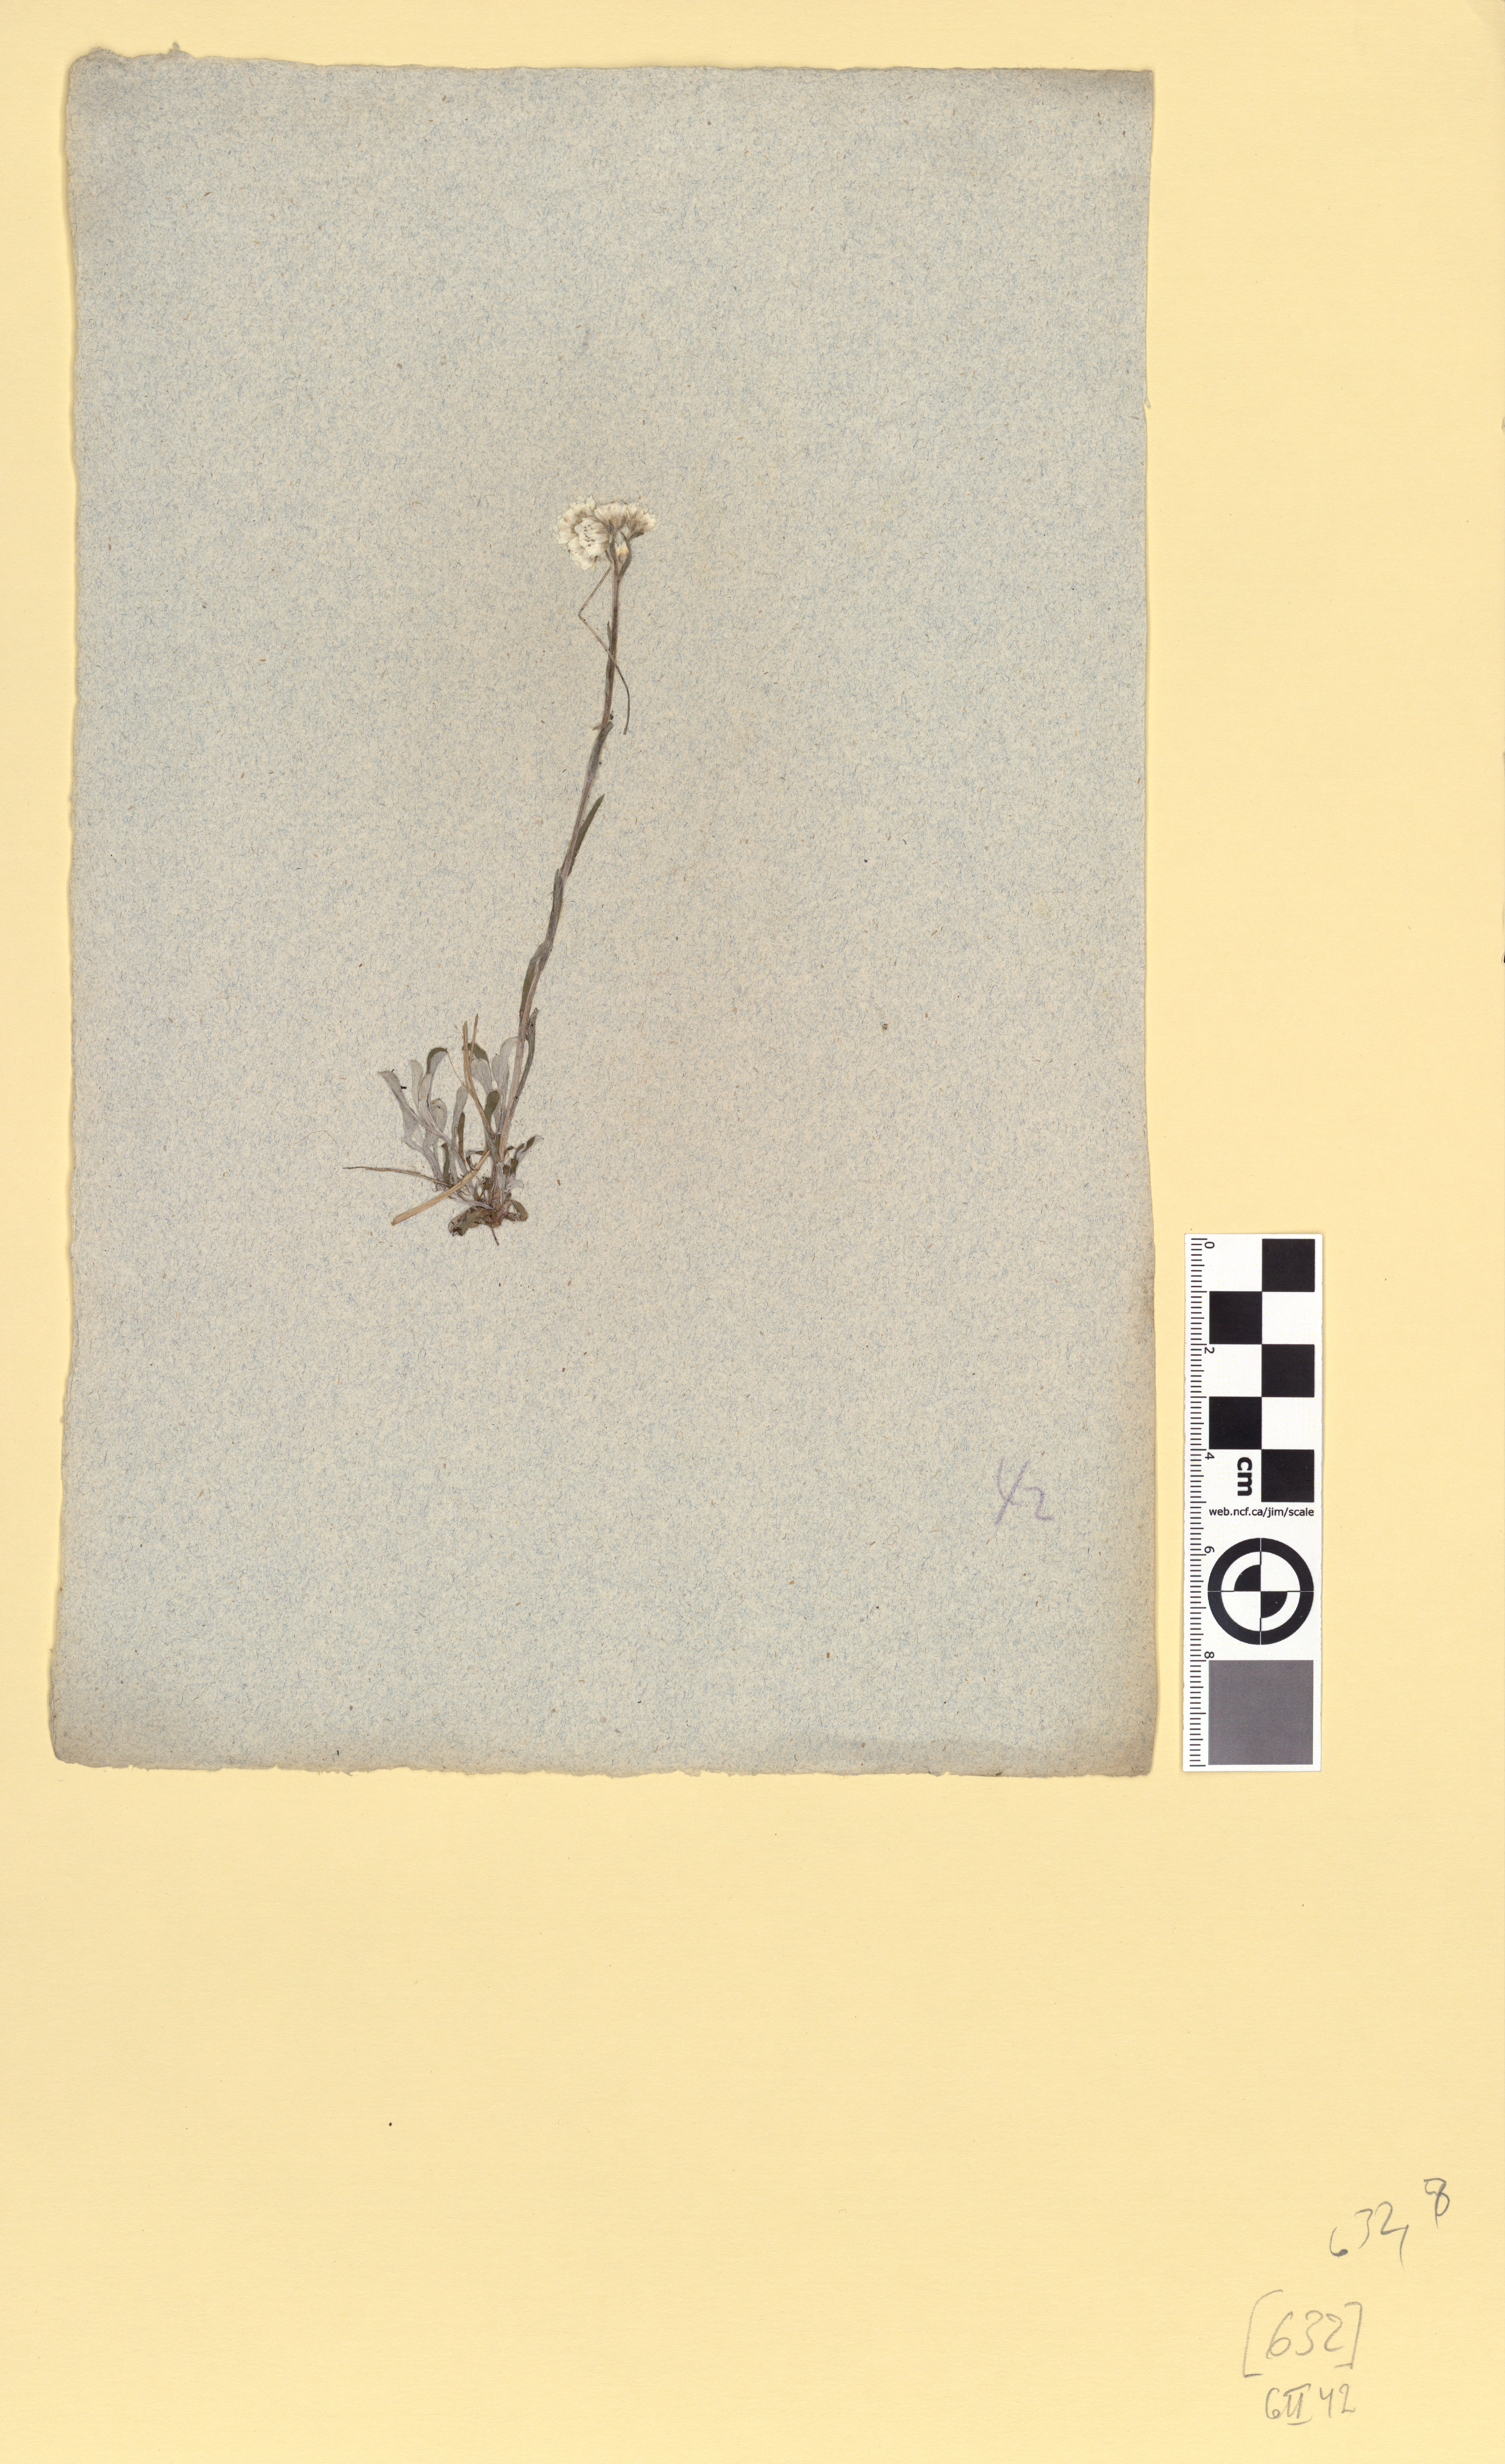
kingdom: Plantae
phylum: Tracheophyta
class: Magnoliopsida
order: Asterales
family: Asteraceae
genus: Antennaria
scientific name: Antennaria dioica
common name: Mountain everlasting
